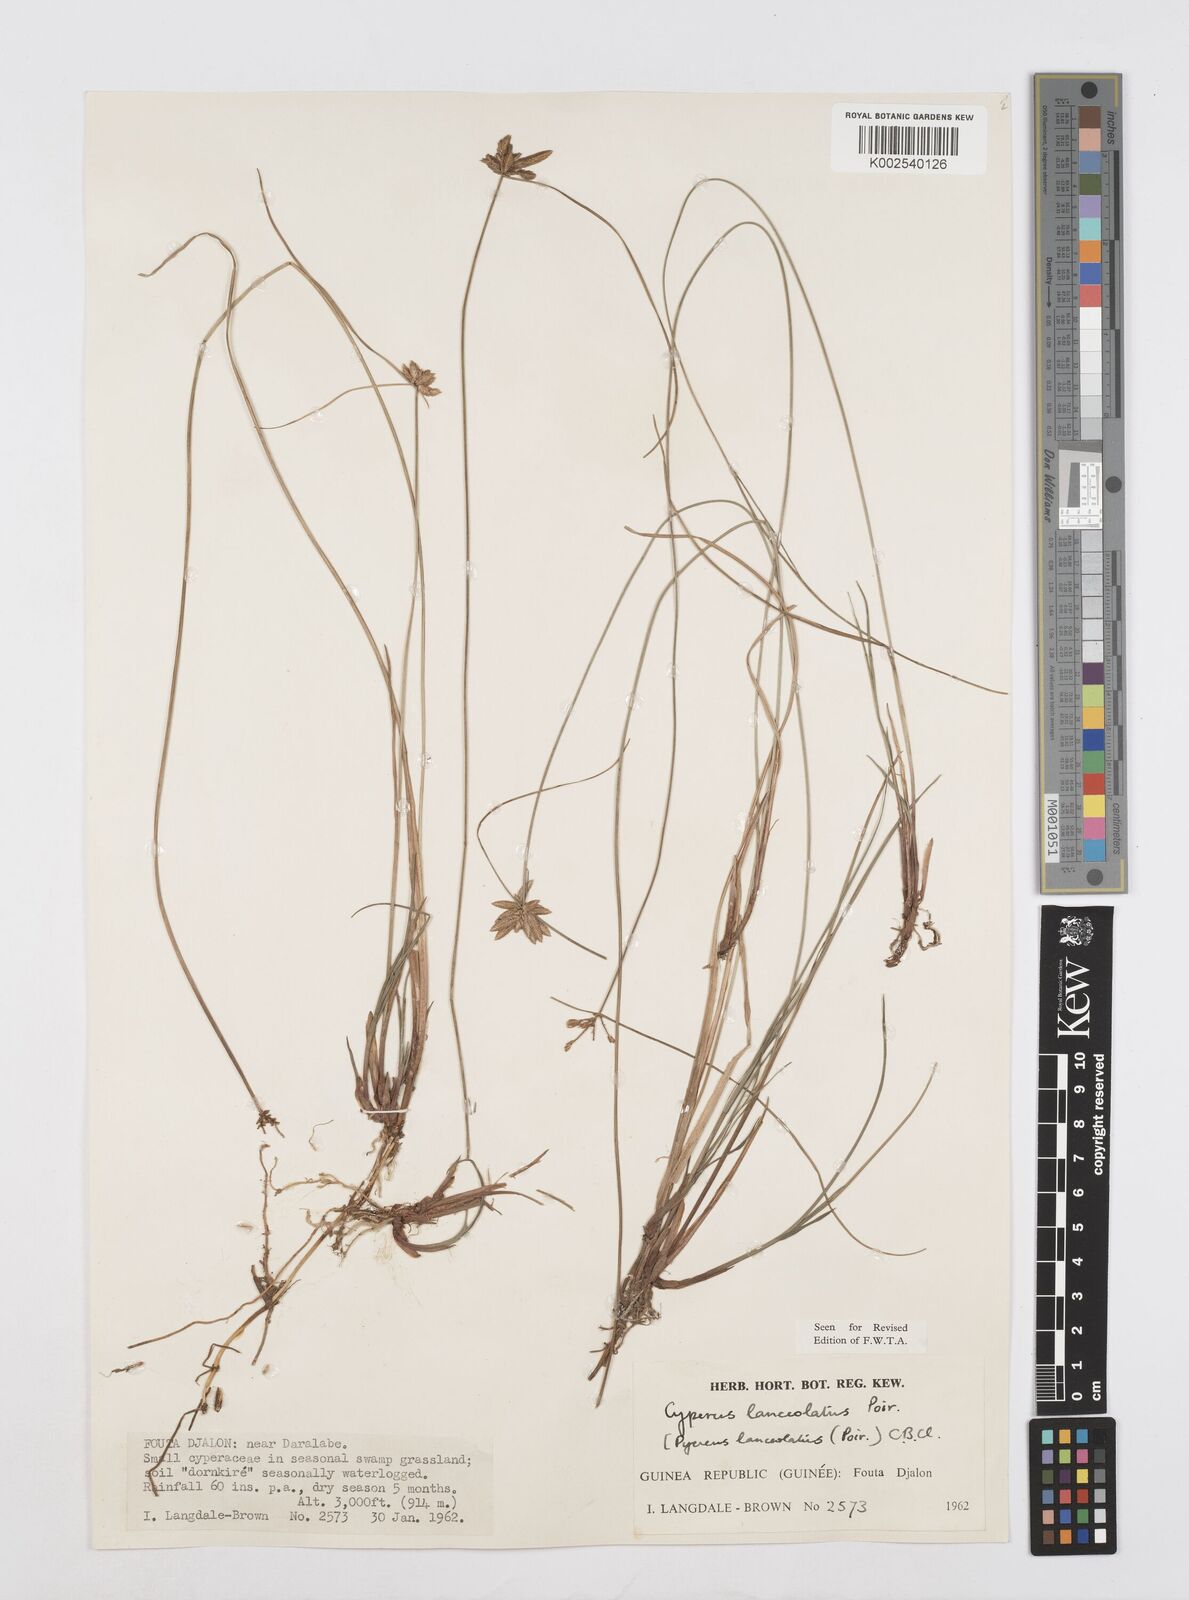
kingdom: Plantae
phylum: Tracheophyta
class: Liliopsida
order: Poales
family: Cyperaceae
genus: Cyperus
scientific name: Cyperus
